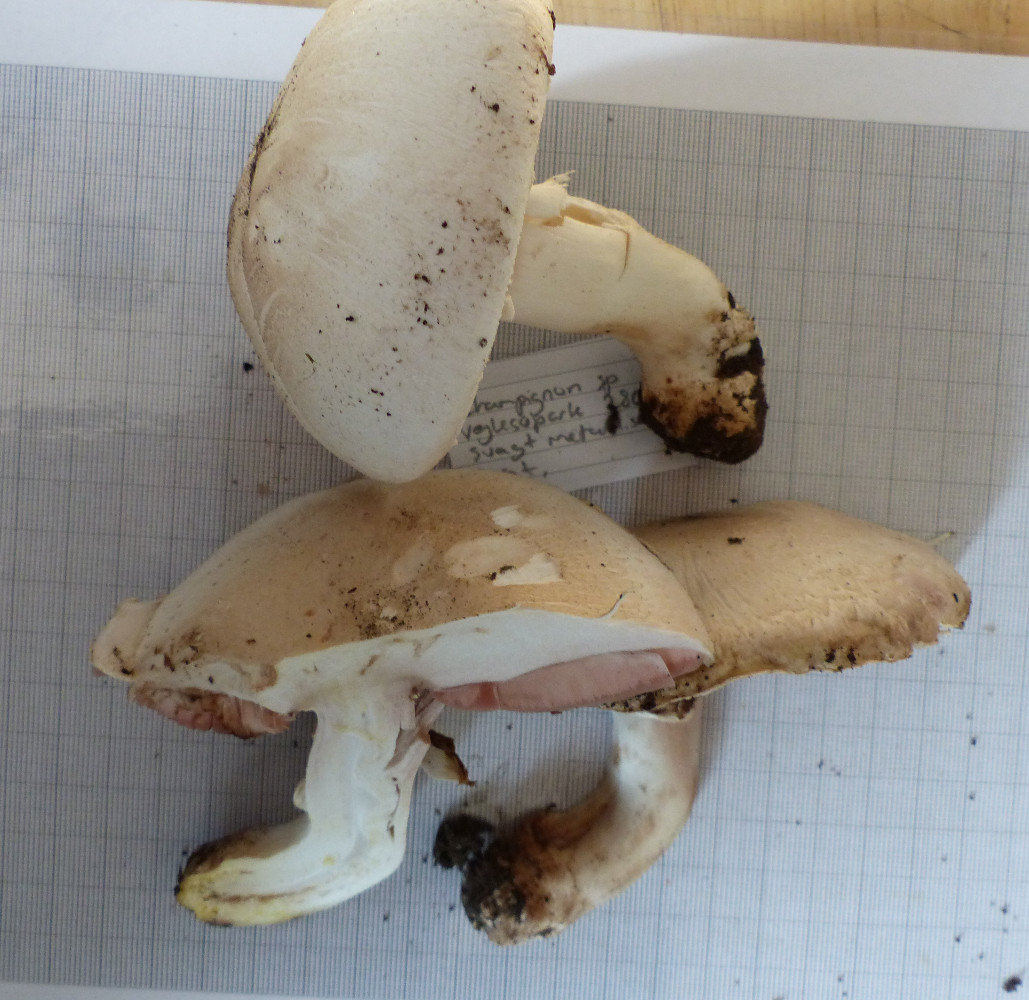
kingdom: Fungi
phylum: Basidiomycota
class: Agaricomycetes
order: Agaricales
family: Agaricaceae
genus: Agaricus
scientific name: Agaricus xanthodermus
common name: karbol-champignon
